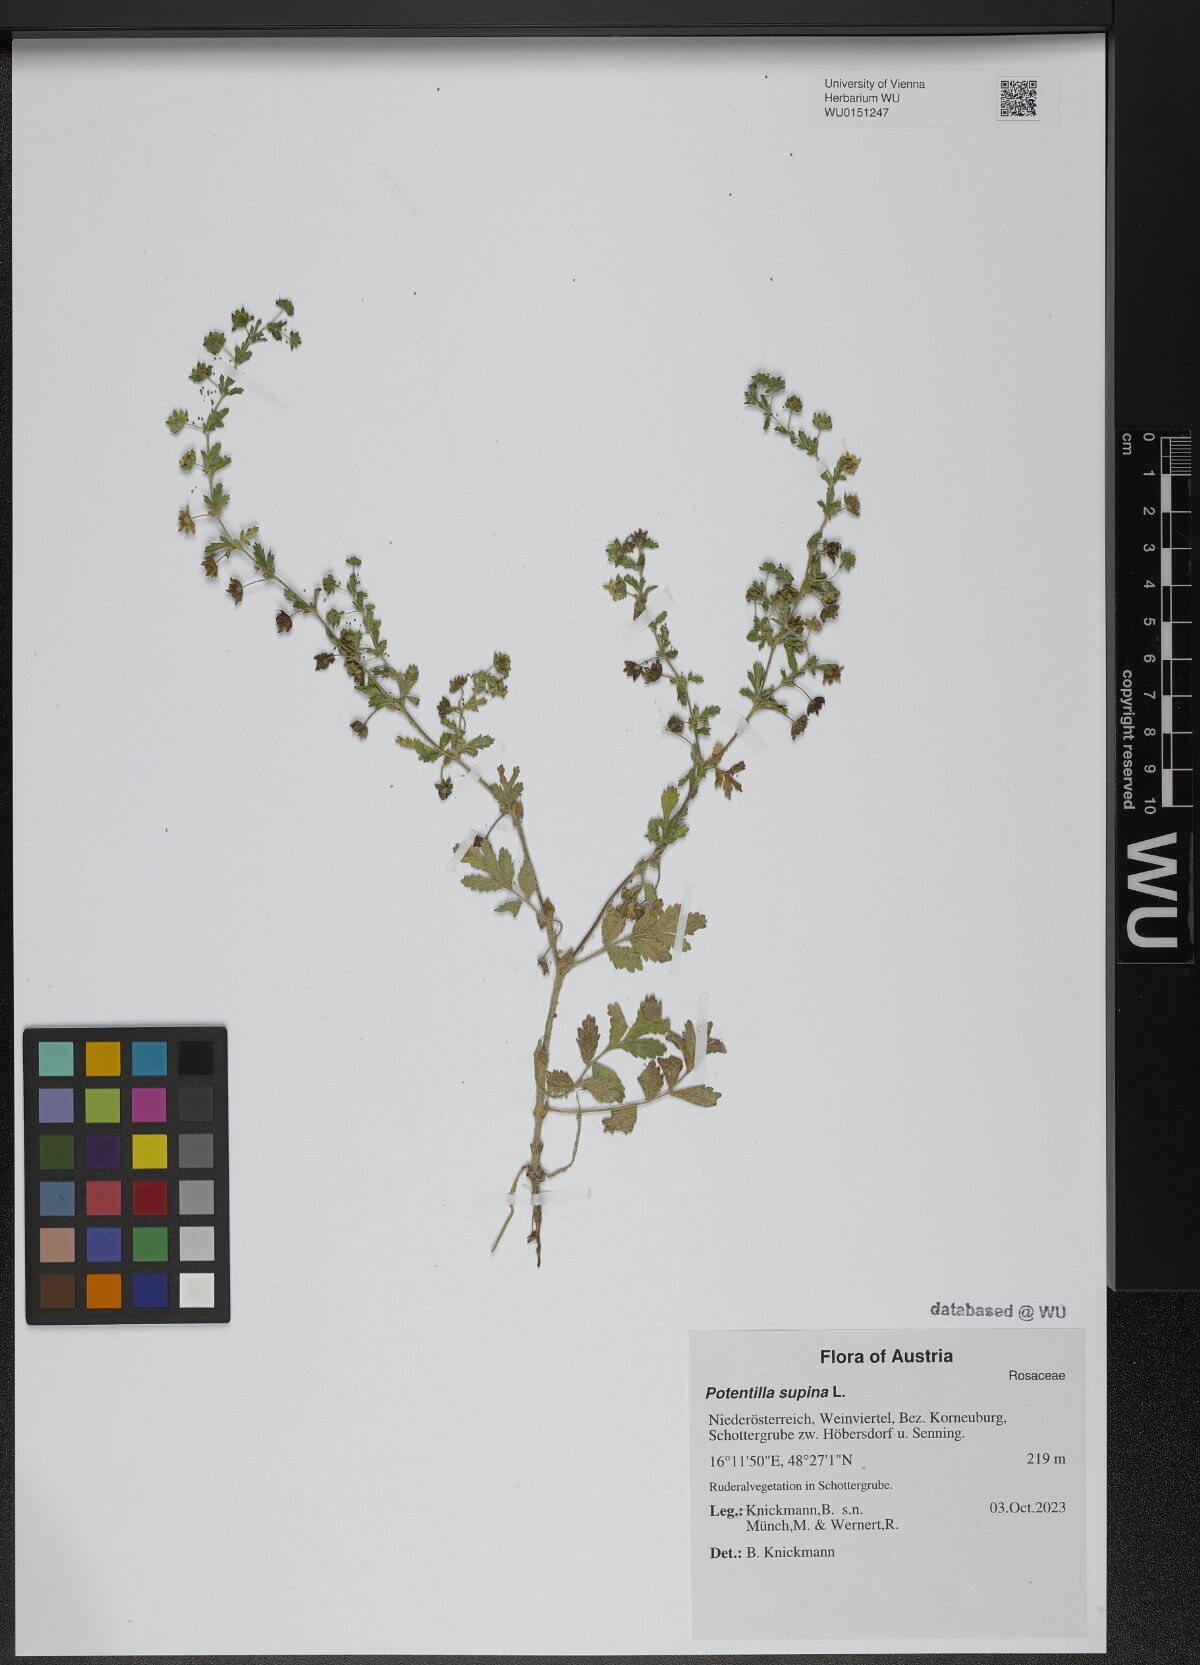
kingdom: Plantae
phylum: Tracheophyta
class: Magnoliopsida
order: Rosales
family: Rosaceae
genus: Potentilla
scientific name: Potentilla supina
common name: Prostrate cinquefoil
